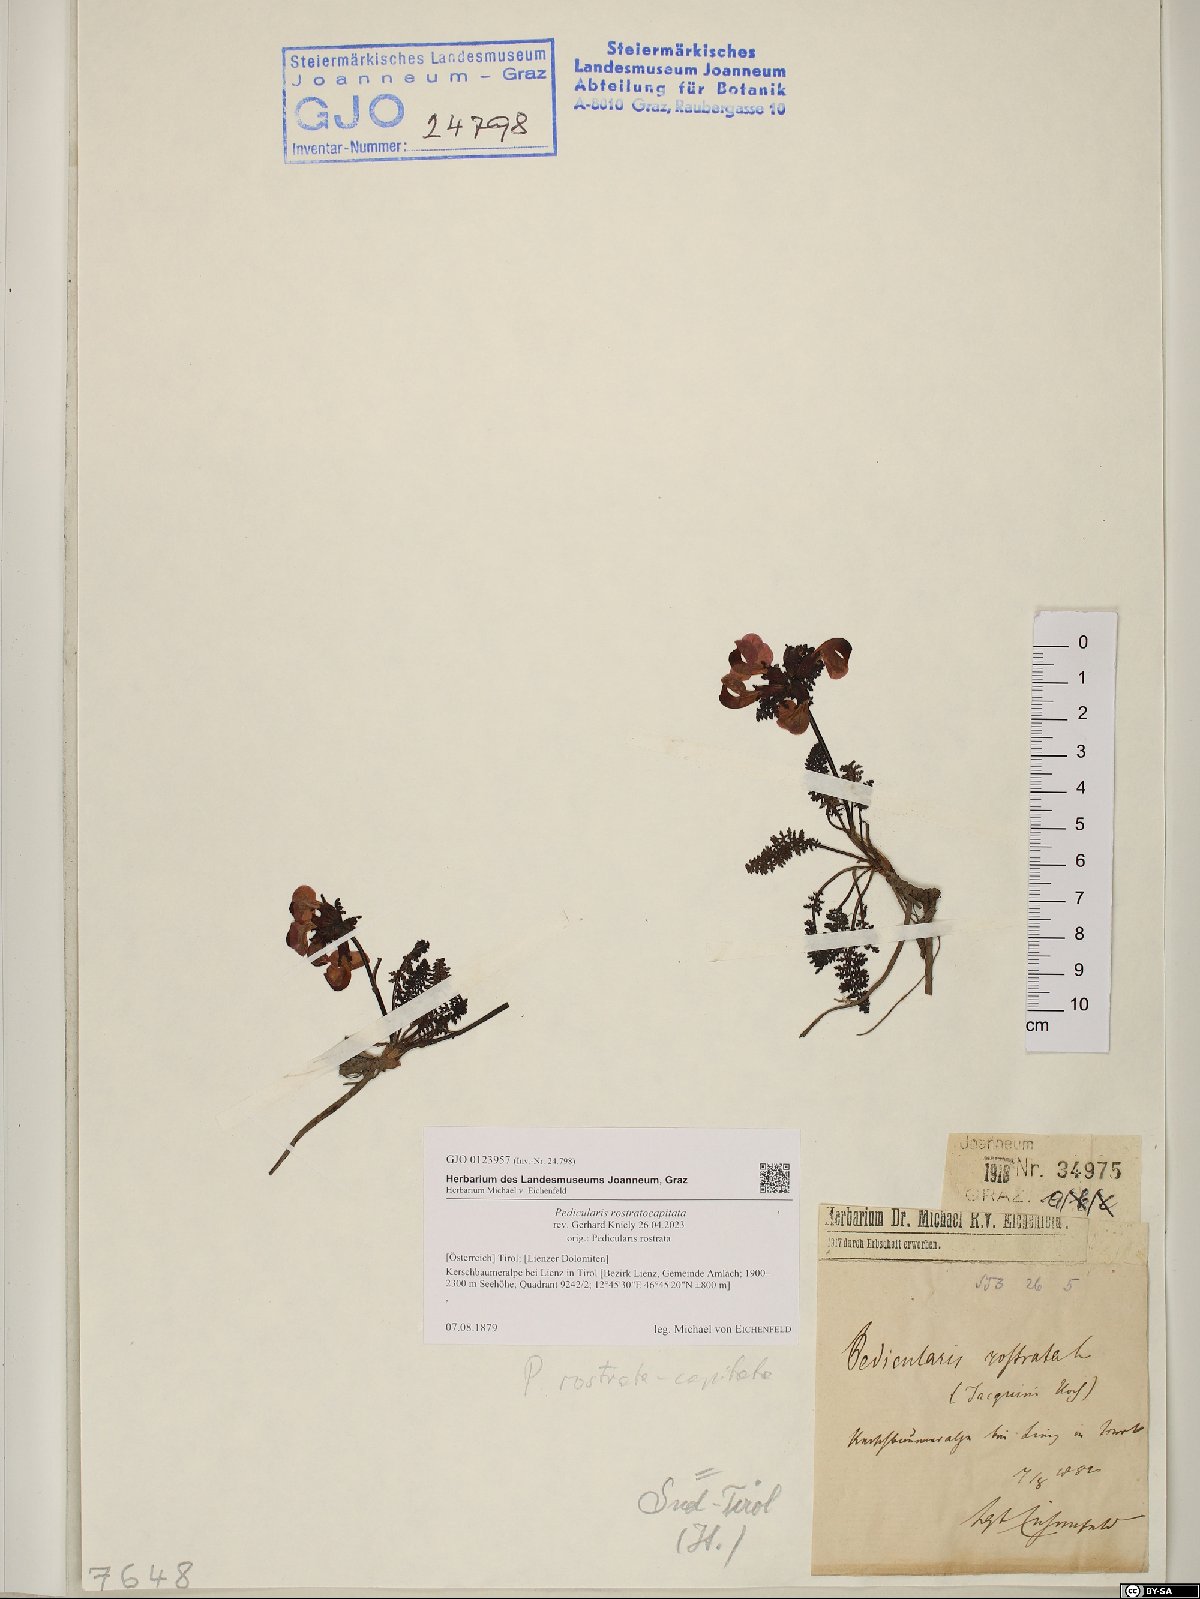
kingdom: Plantae
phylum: Tracheophyta
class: Magnoliopsida
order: Lamiales
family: Orobanchaceae
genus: Pedicularis
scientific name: Pedicularis rostratocapitata
